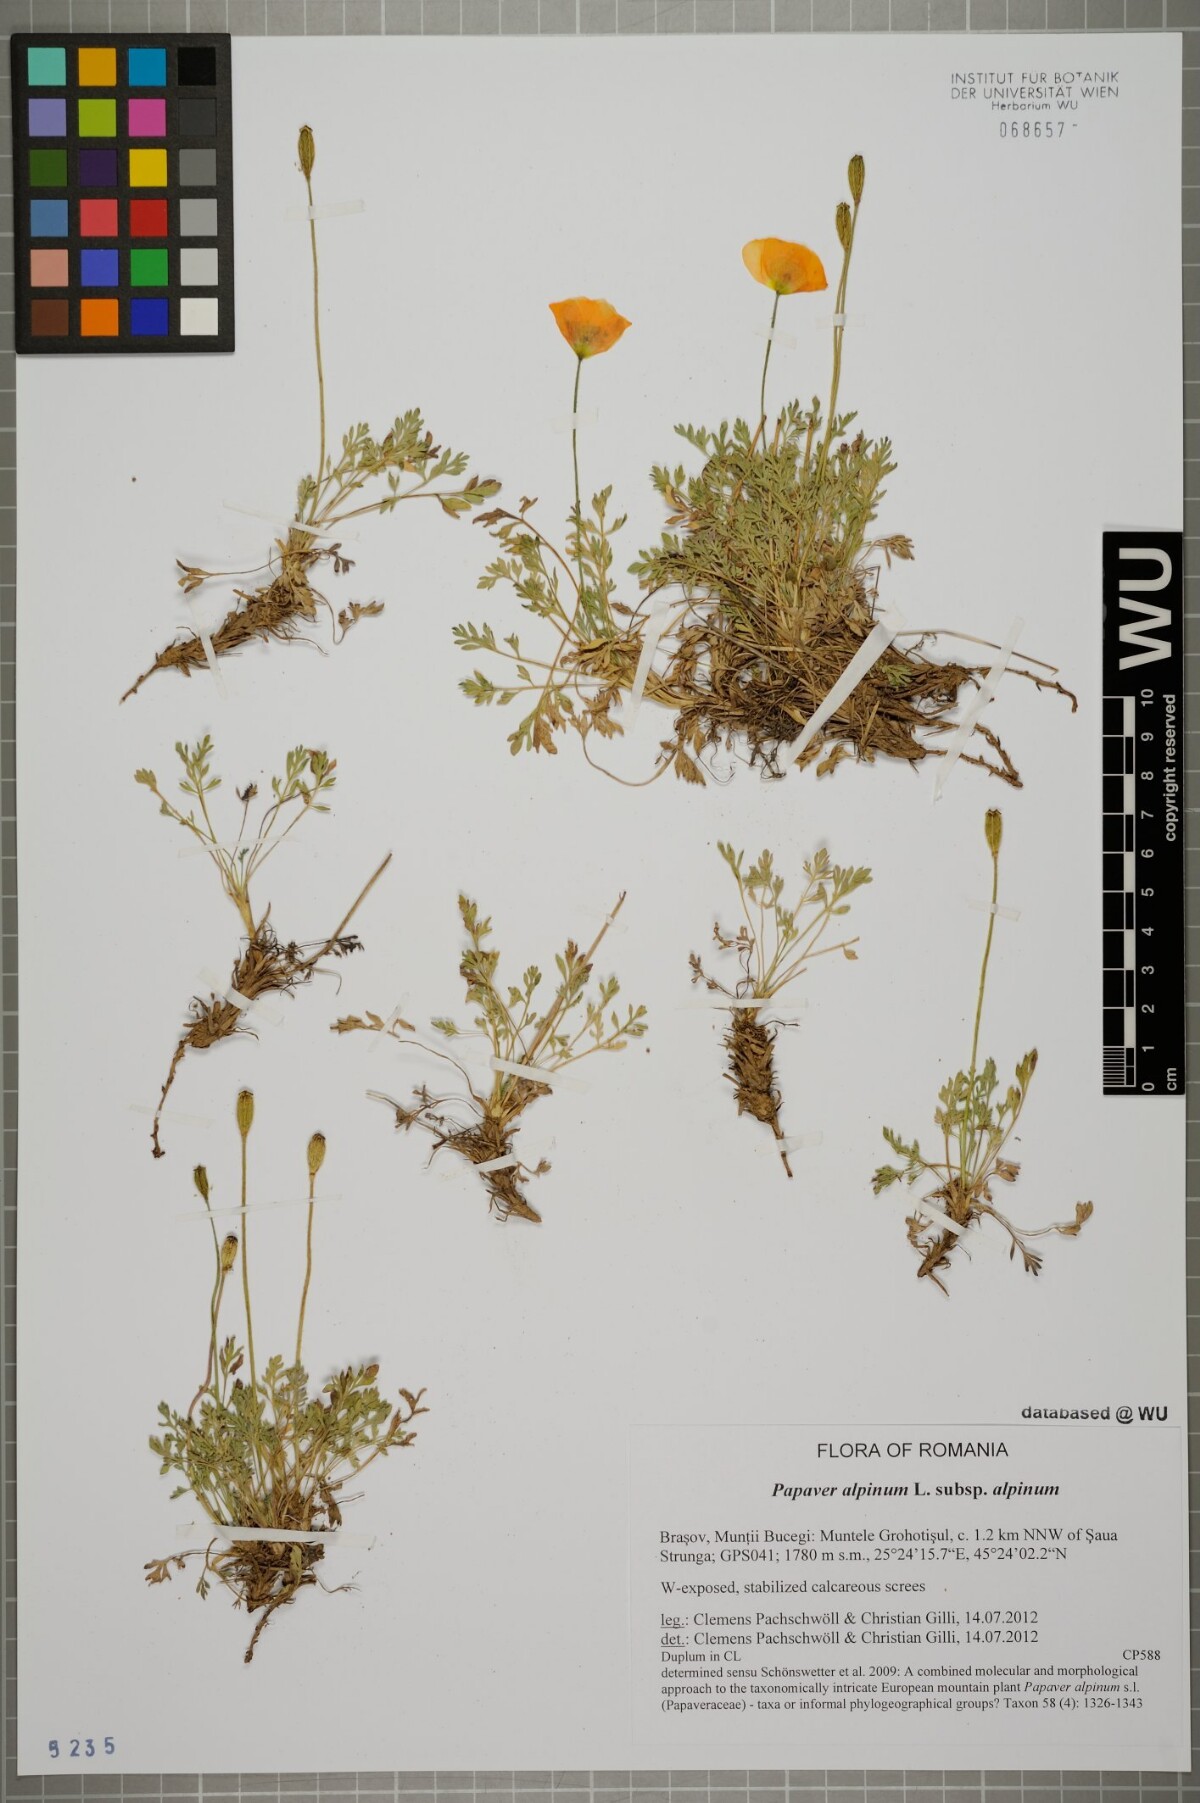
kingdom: Plantae
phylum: Tracheophyta
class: Magnoliopsida
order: Ranunculales
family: Papaveraceae
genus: Papaver
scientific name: Papaver alpinum
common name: Austrian poppy
